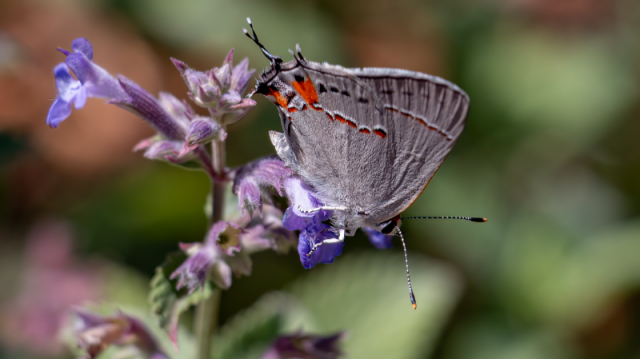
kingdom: Animalia
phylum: Arthropoda
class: Insecta
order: Lepidoptera
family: Lycaenidae
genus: Strymon
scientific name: Strymon melinus
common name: Gray Hairstreak
